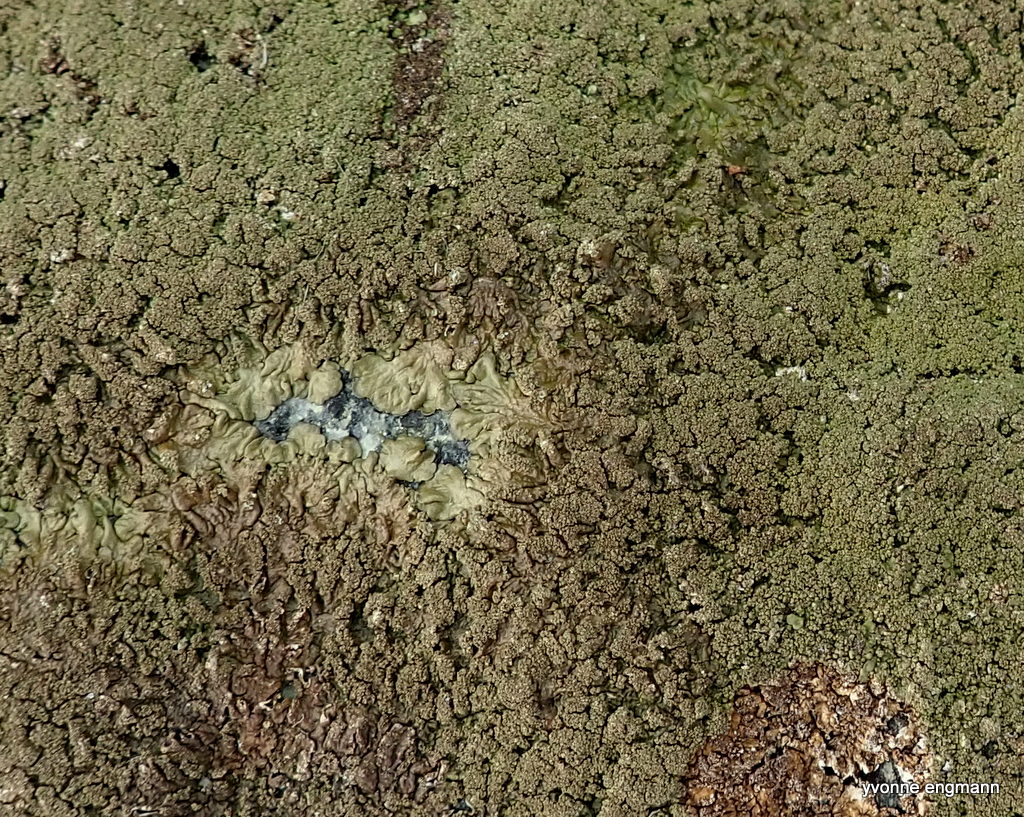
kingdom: Fungi
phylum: Ascomycota
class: Lecanoromycetes
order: Lecanorales
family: Parmeliaceae
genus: Xanthoparmelia
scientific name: Xanthoparmelia verruculifera
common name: småknoppet skållav
